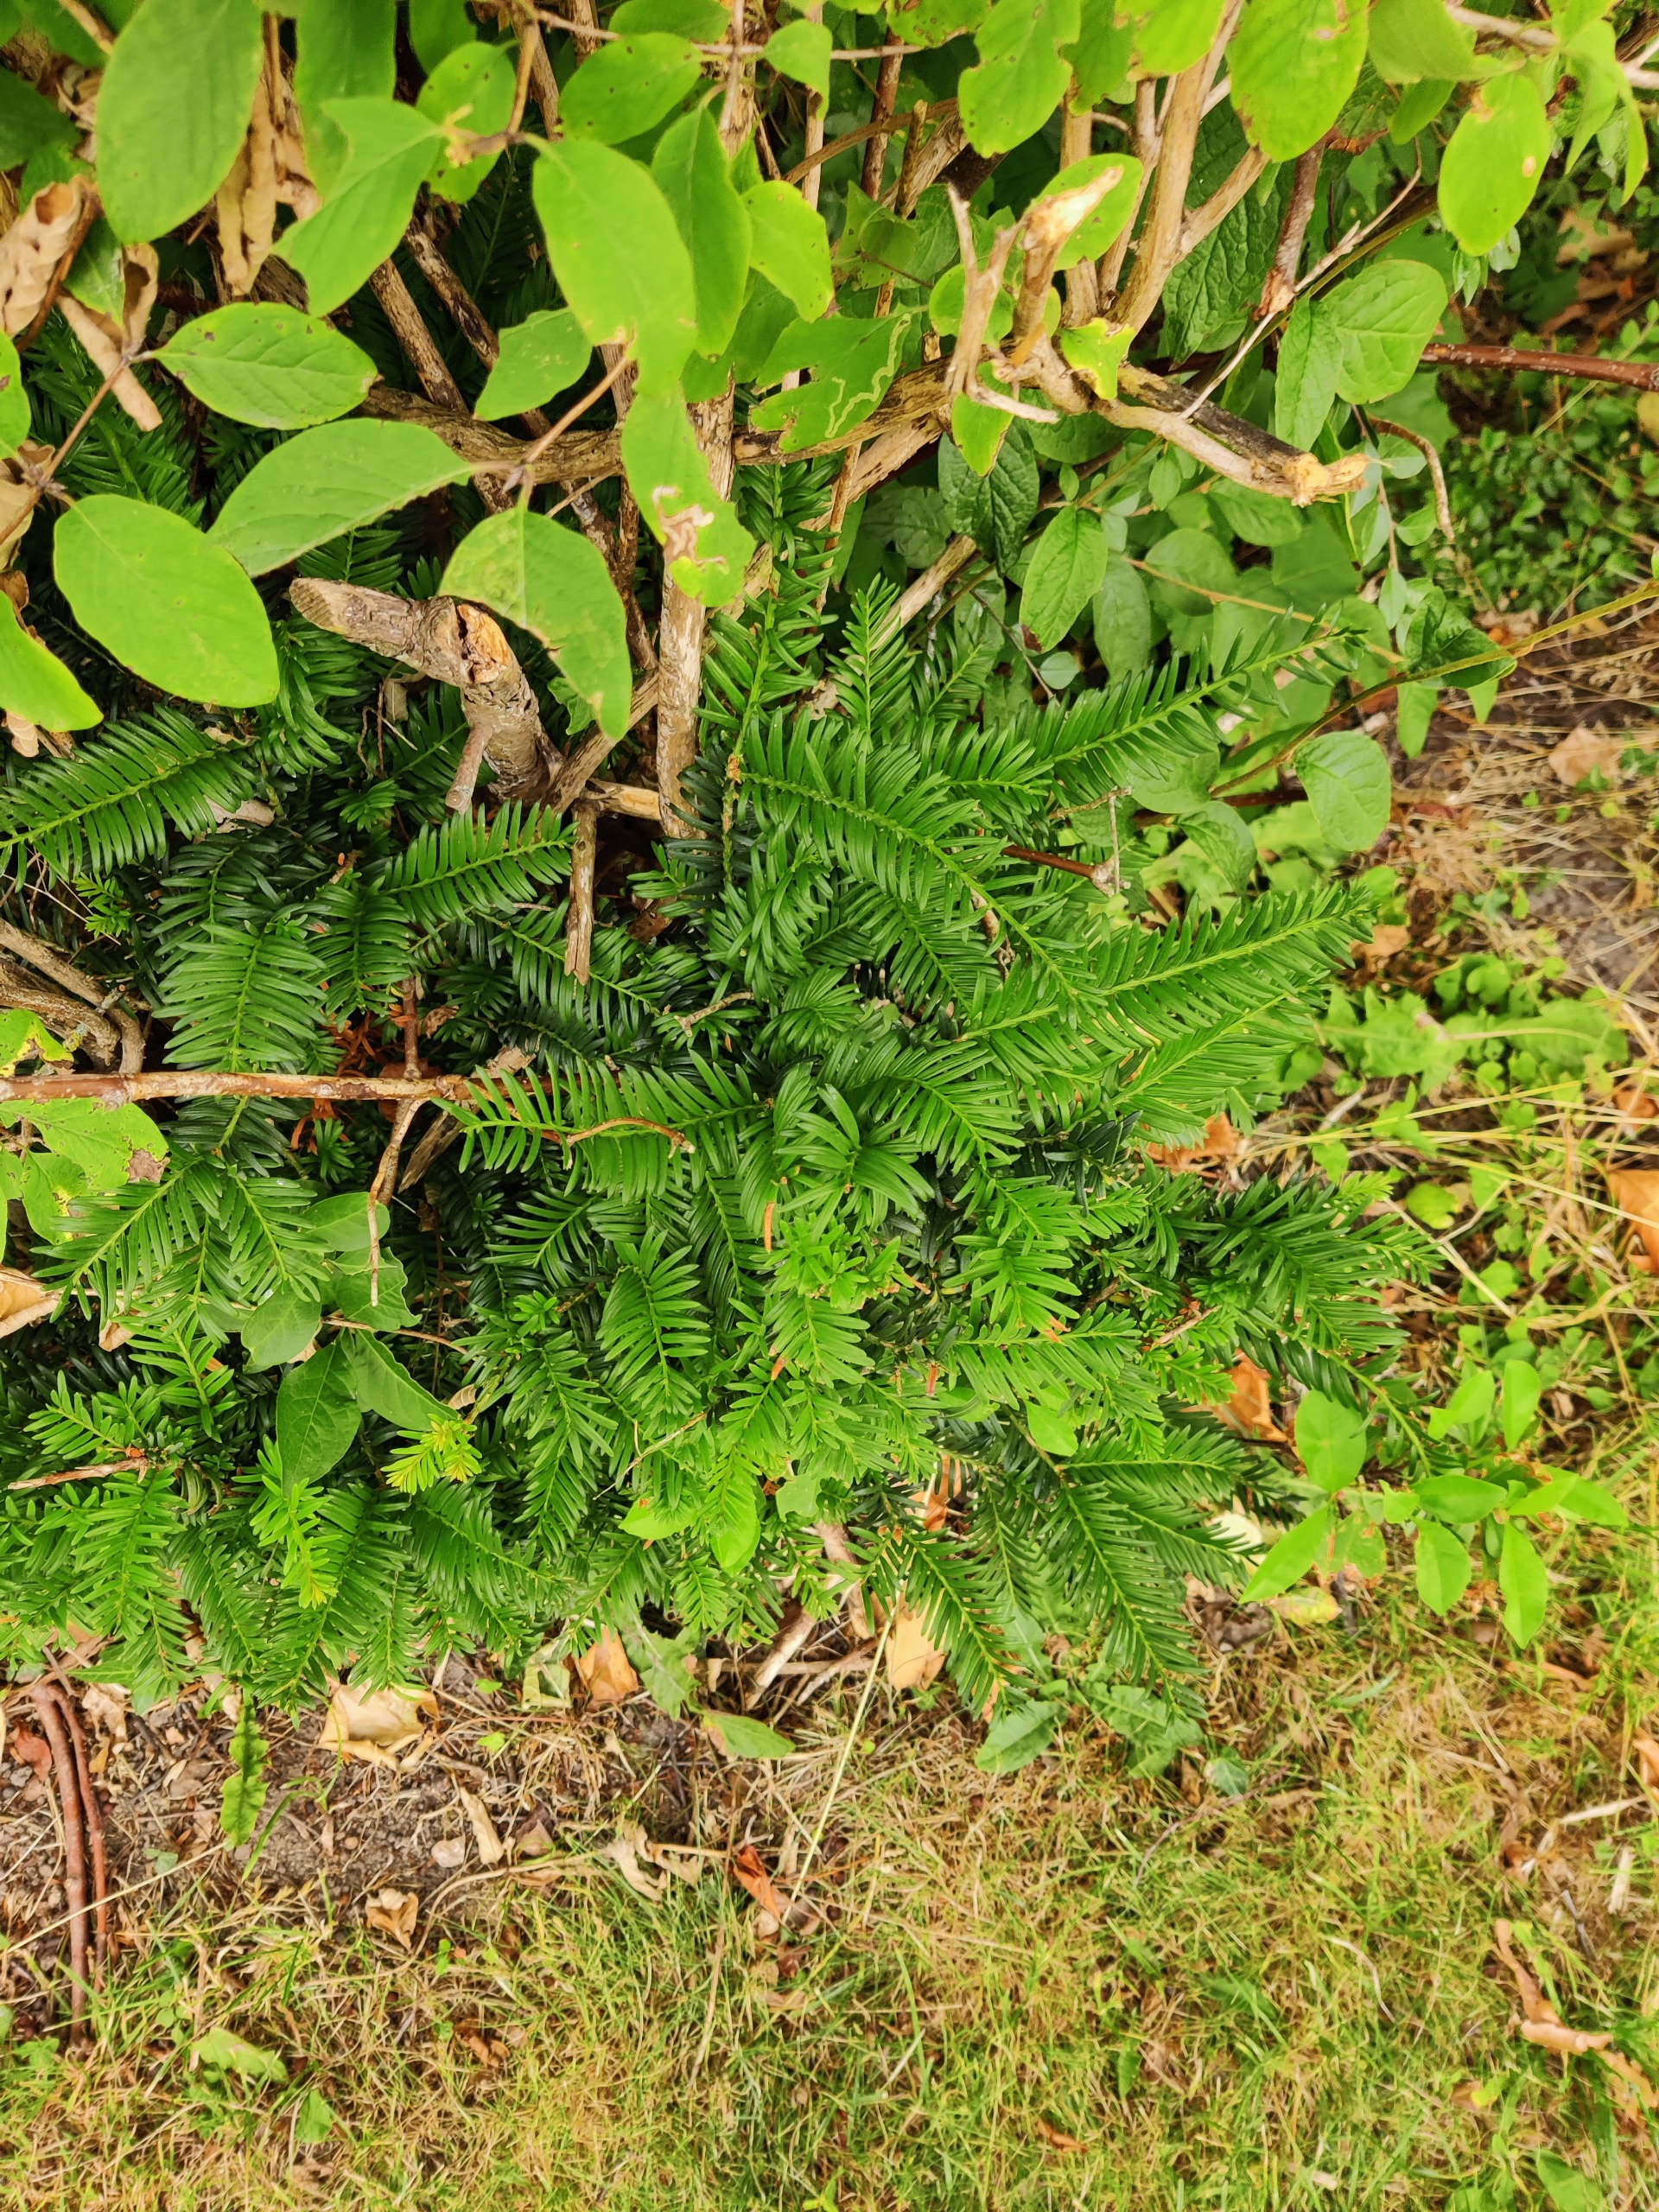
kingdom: Plantae
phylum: Tracheophyta
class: Pinopsida
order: Pinales
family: Taxaceae
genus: Taxus
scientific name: Taxus baccata
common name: Almindelig taks
